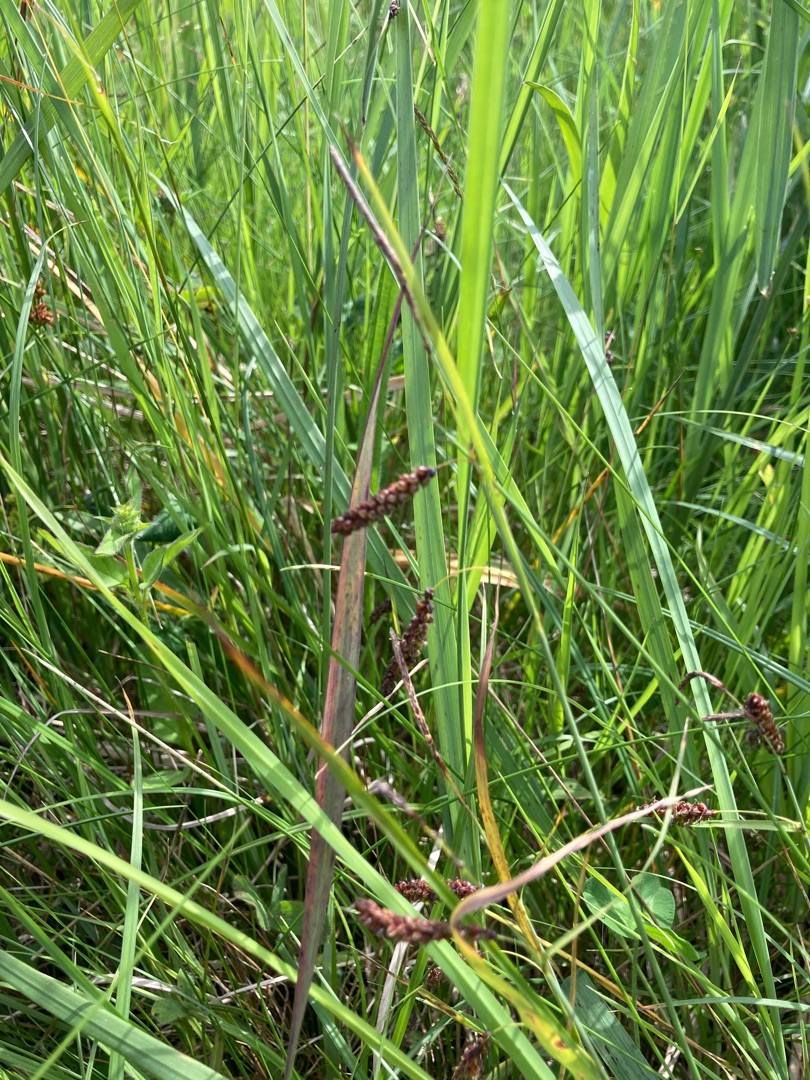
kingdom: Plantae
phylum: Tracheophyta
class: Liliopsida
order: Poales
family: Cyperaceae
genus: Carex
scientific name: Carex flacca
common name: Blågrøn star
